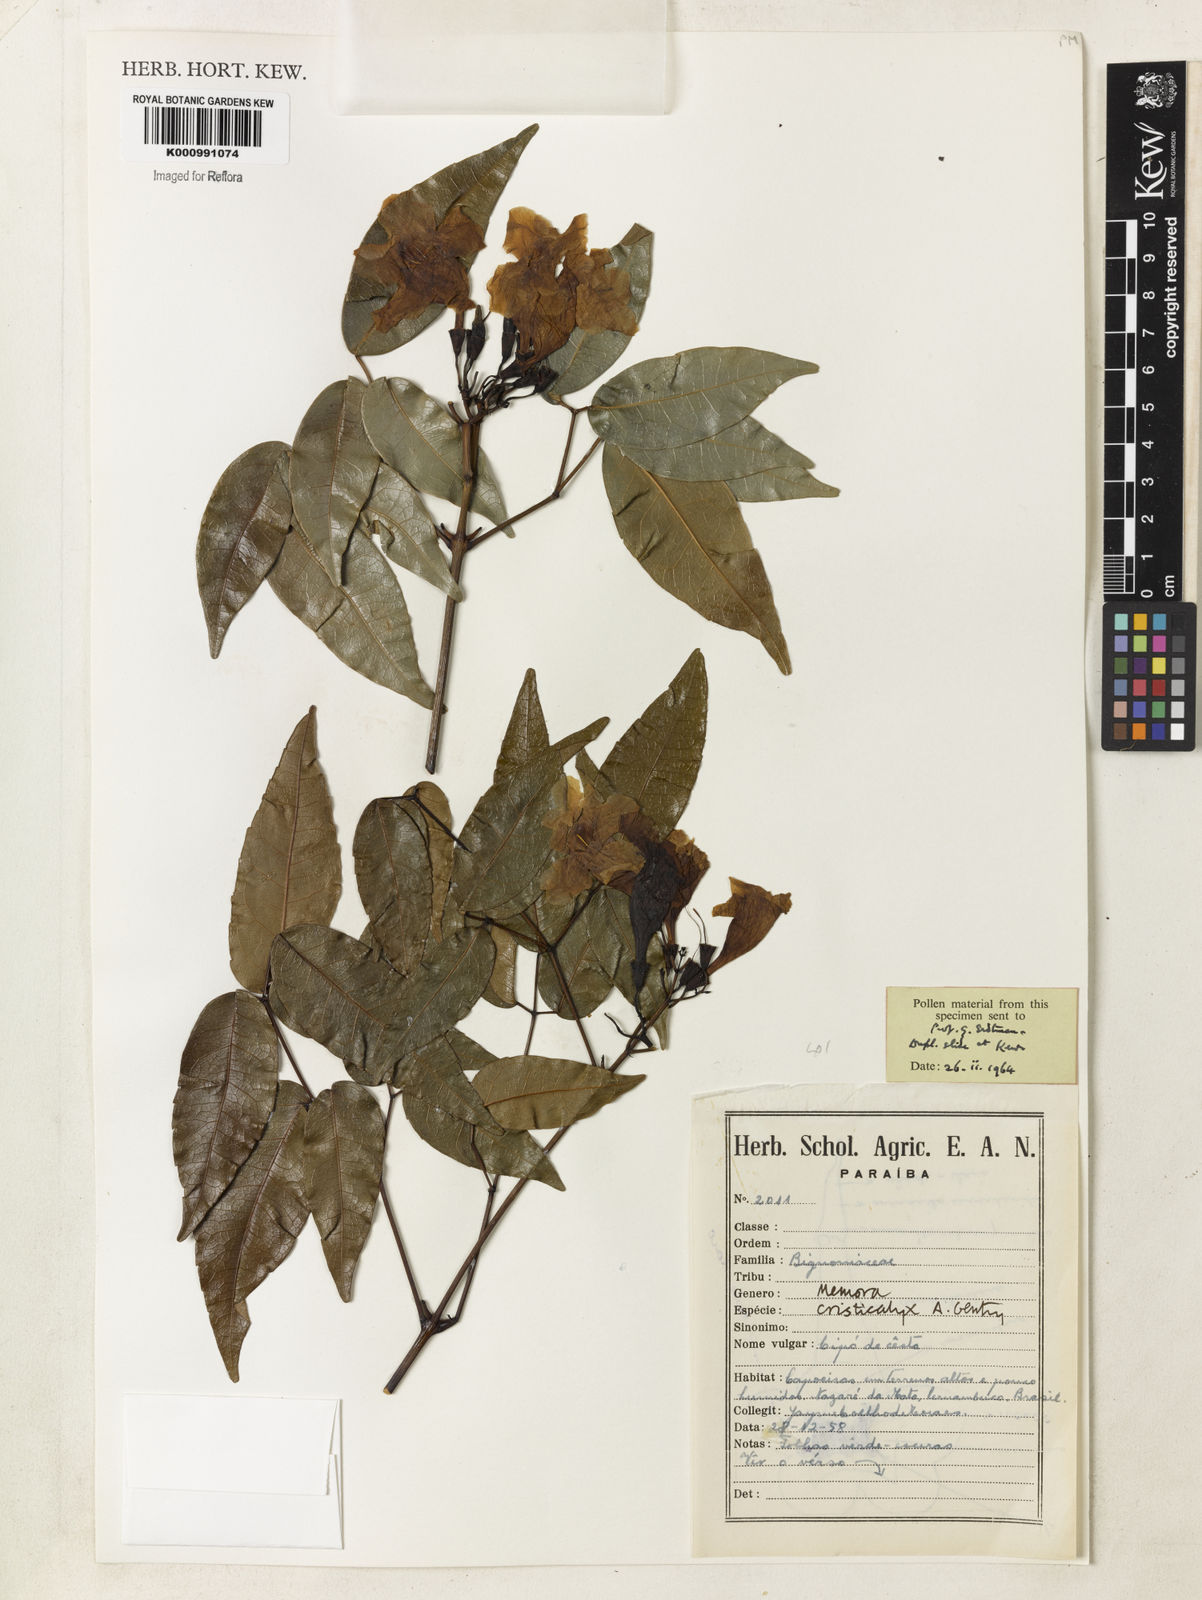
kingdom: Plantae
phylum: Tracheophyta
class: Magnoliopsida
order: Lamiales
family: Bignoniaceae
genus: Adenocalymma
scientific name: Adenocalymma cristicalyx
